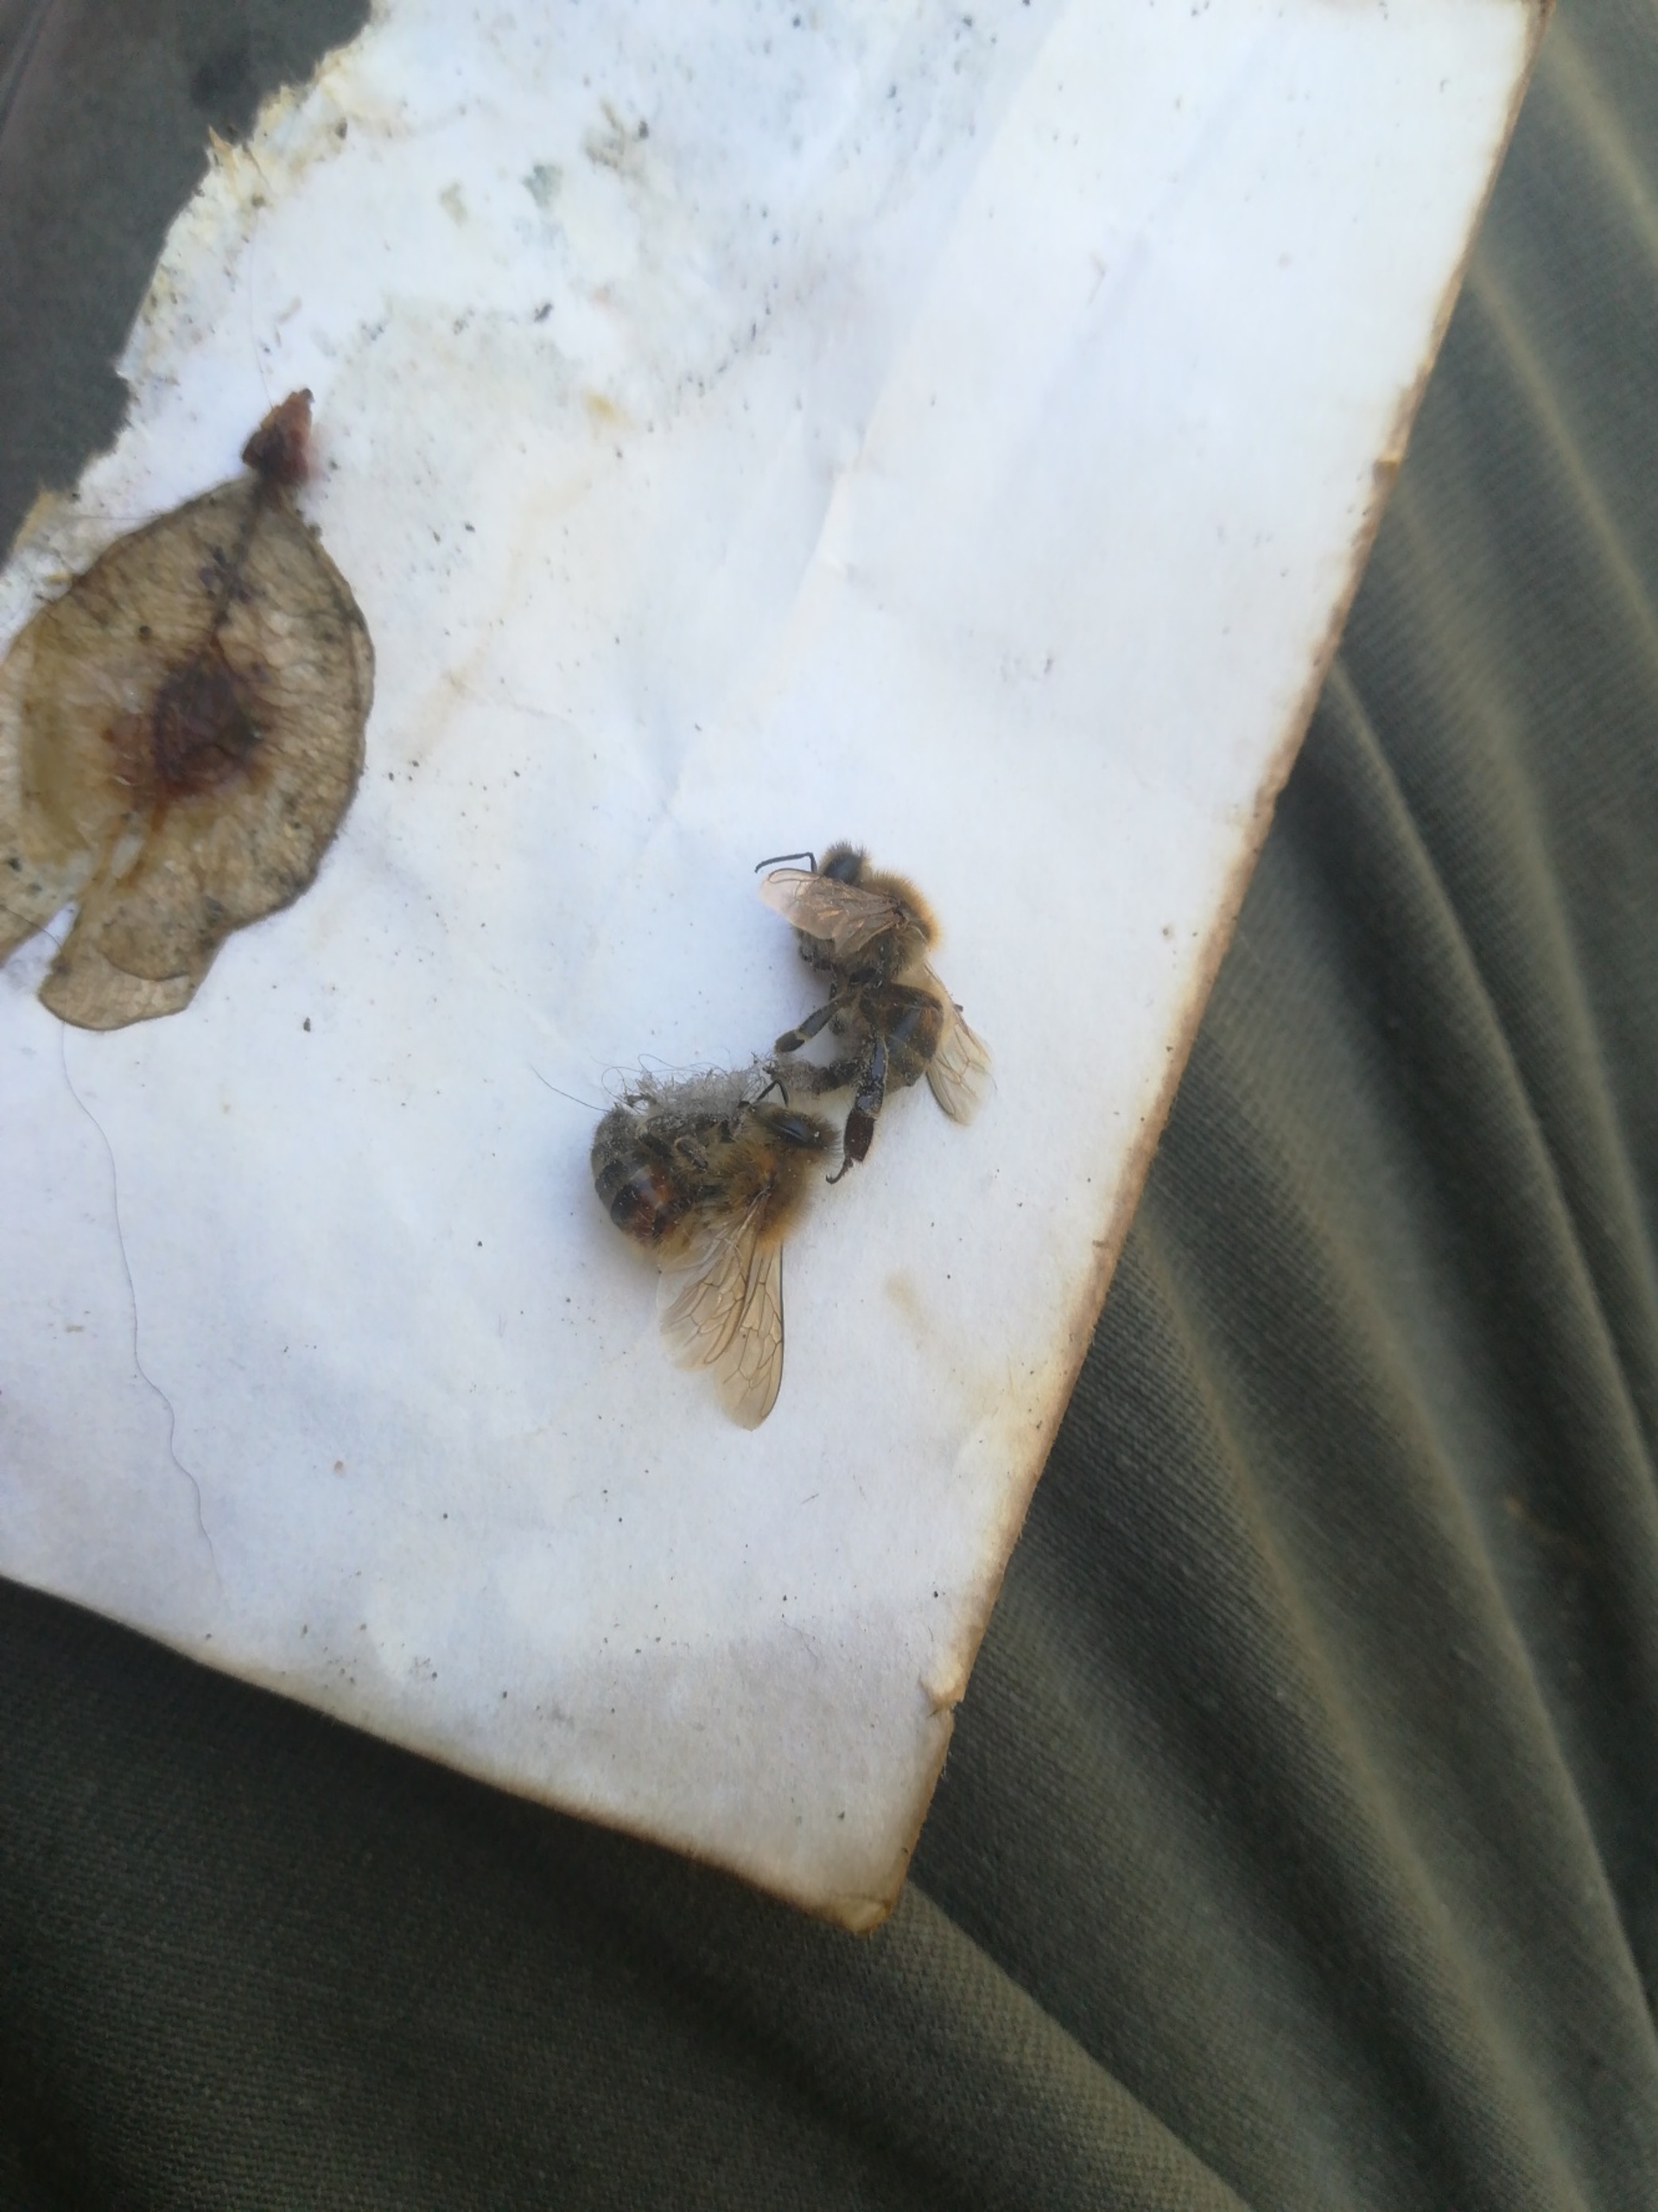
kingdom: Animalia
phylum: Arthropoda
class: Insecta
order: Hymenoptera
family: Apidae
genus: Apis
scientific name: Apis mellifera
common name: Honningbi
